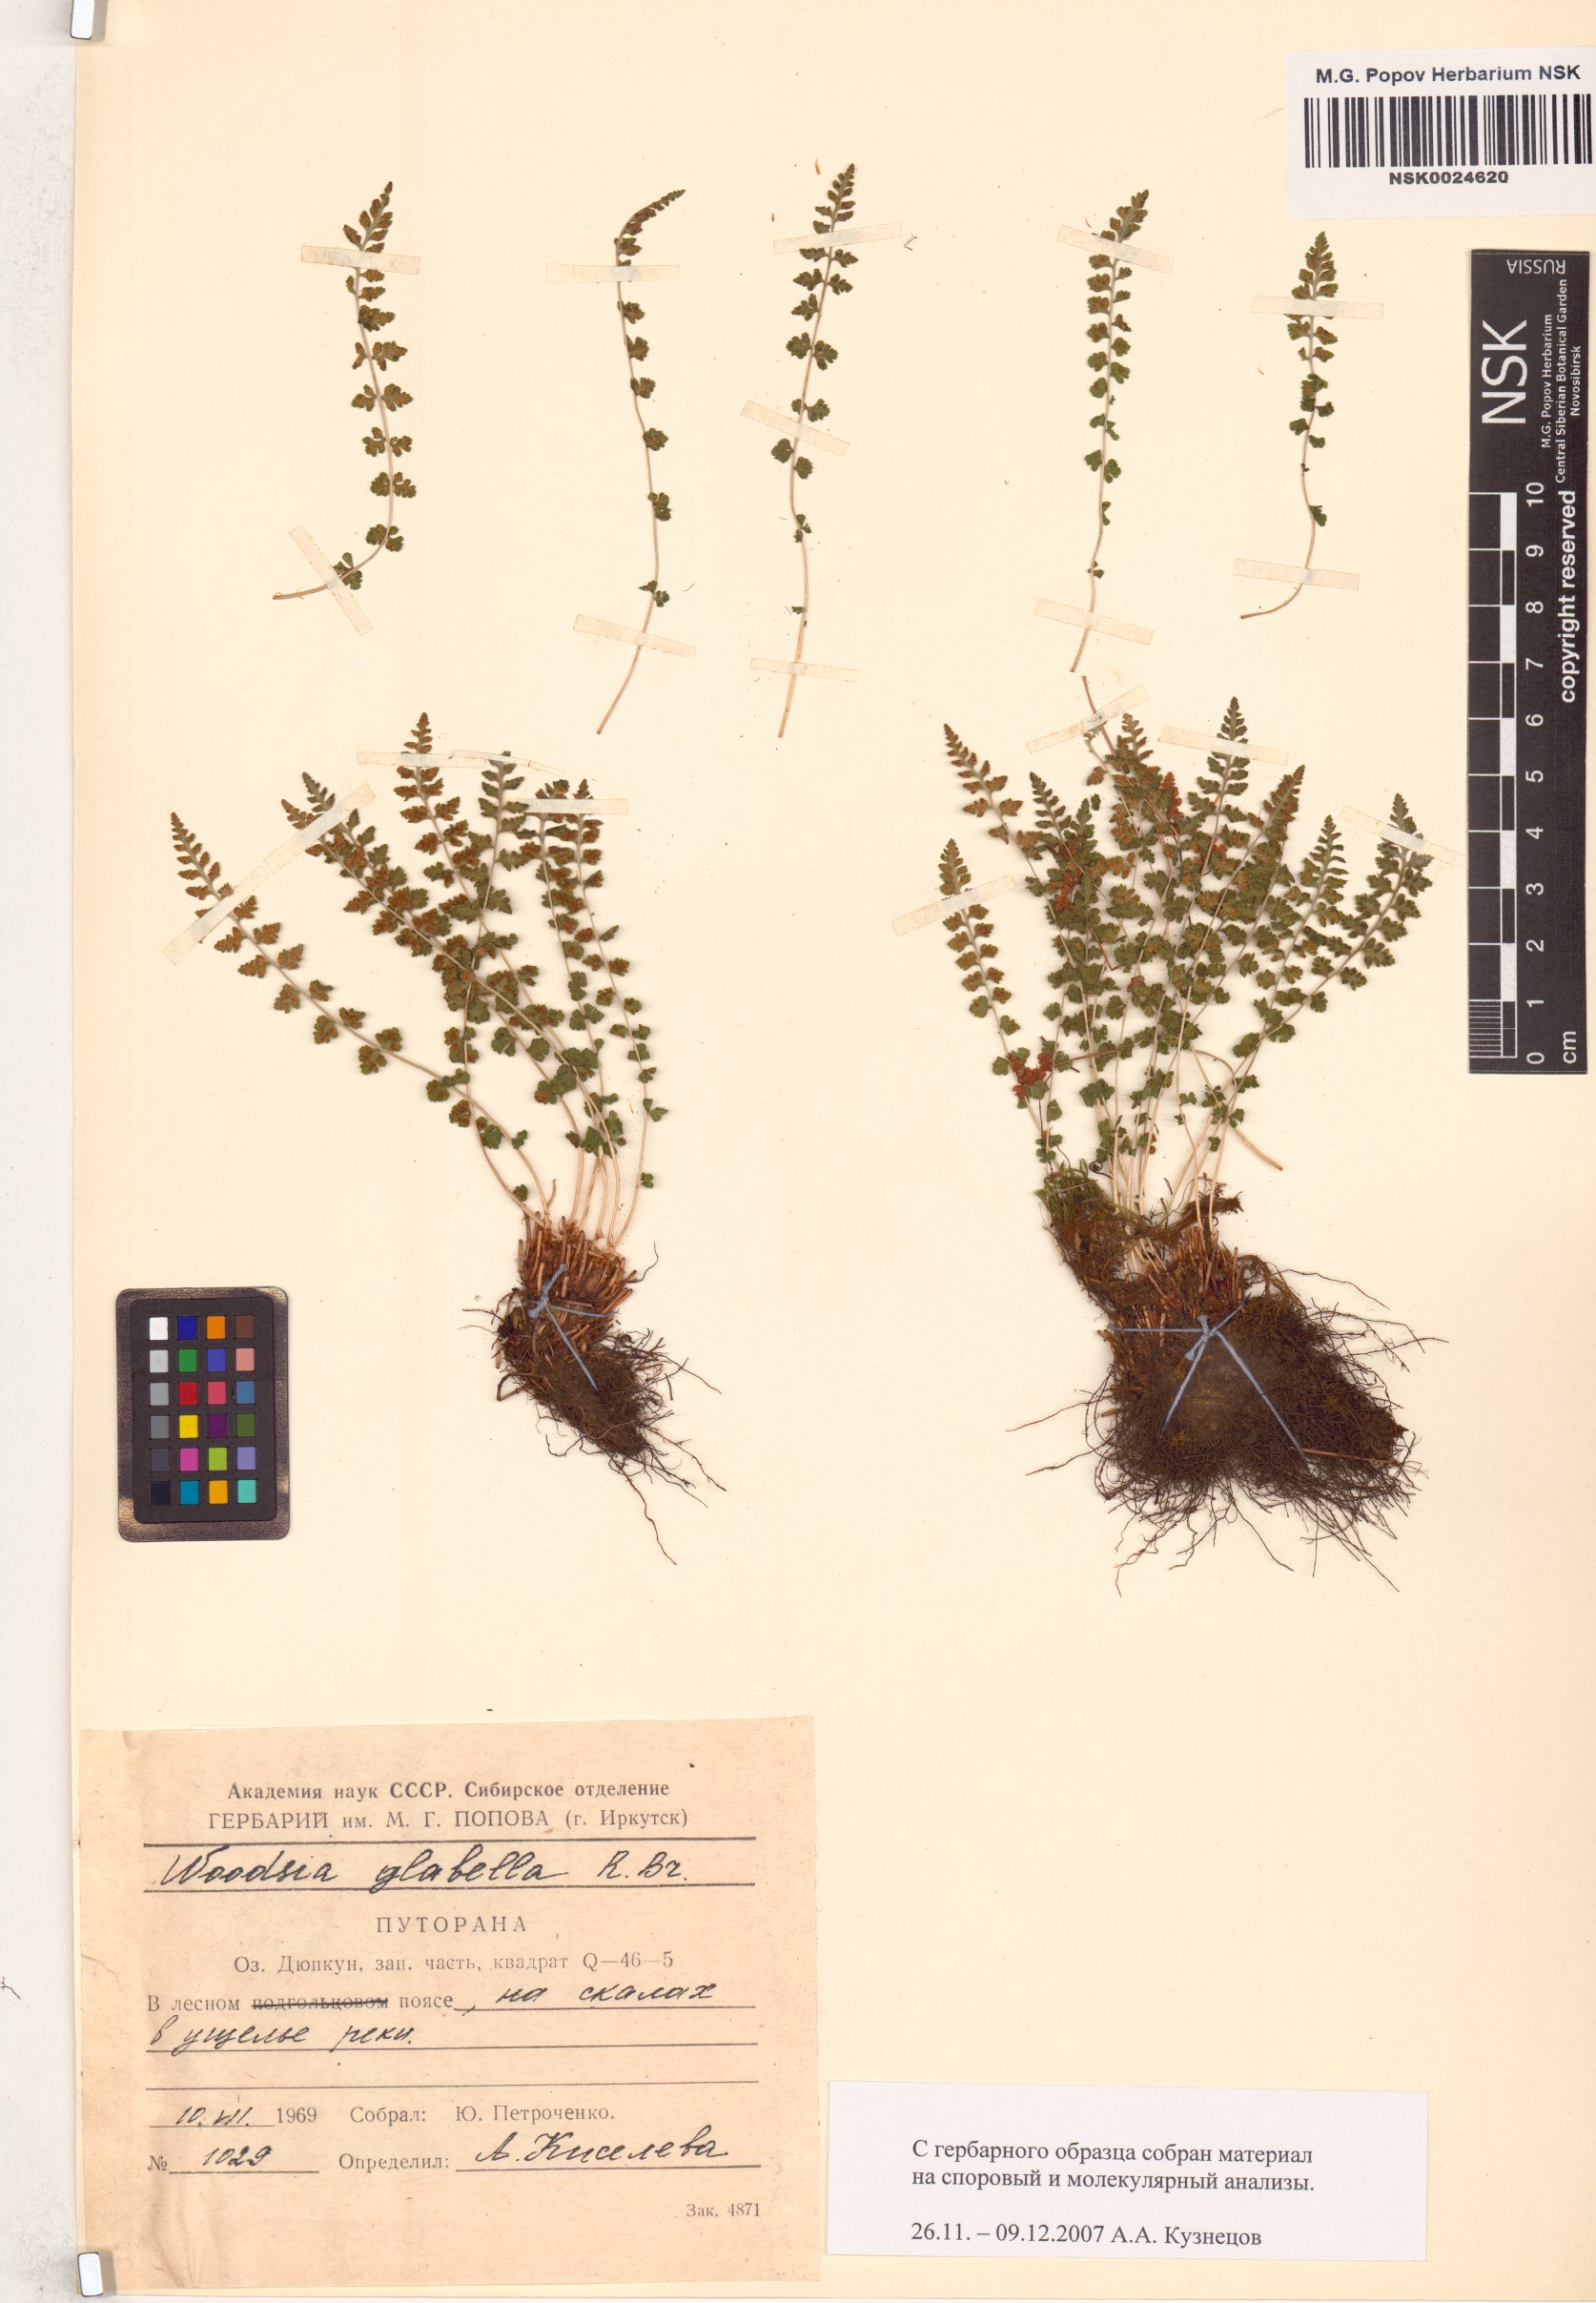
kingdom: Plantae
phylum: Tracheophyta
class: Polypodiopsida
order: Polypodiales
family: Woodsiaceae
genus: Woodsia
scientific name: Woodsia glabella
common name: Smooth woodsia
